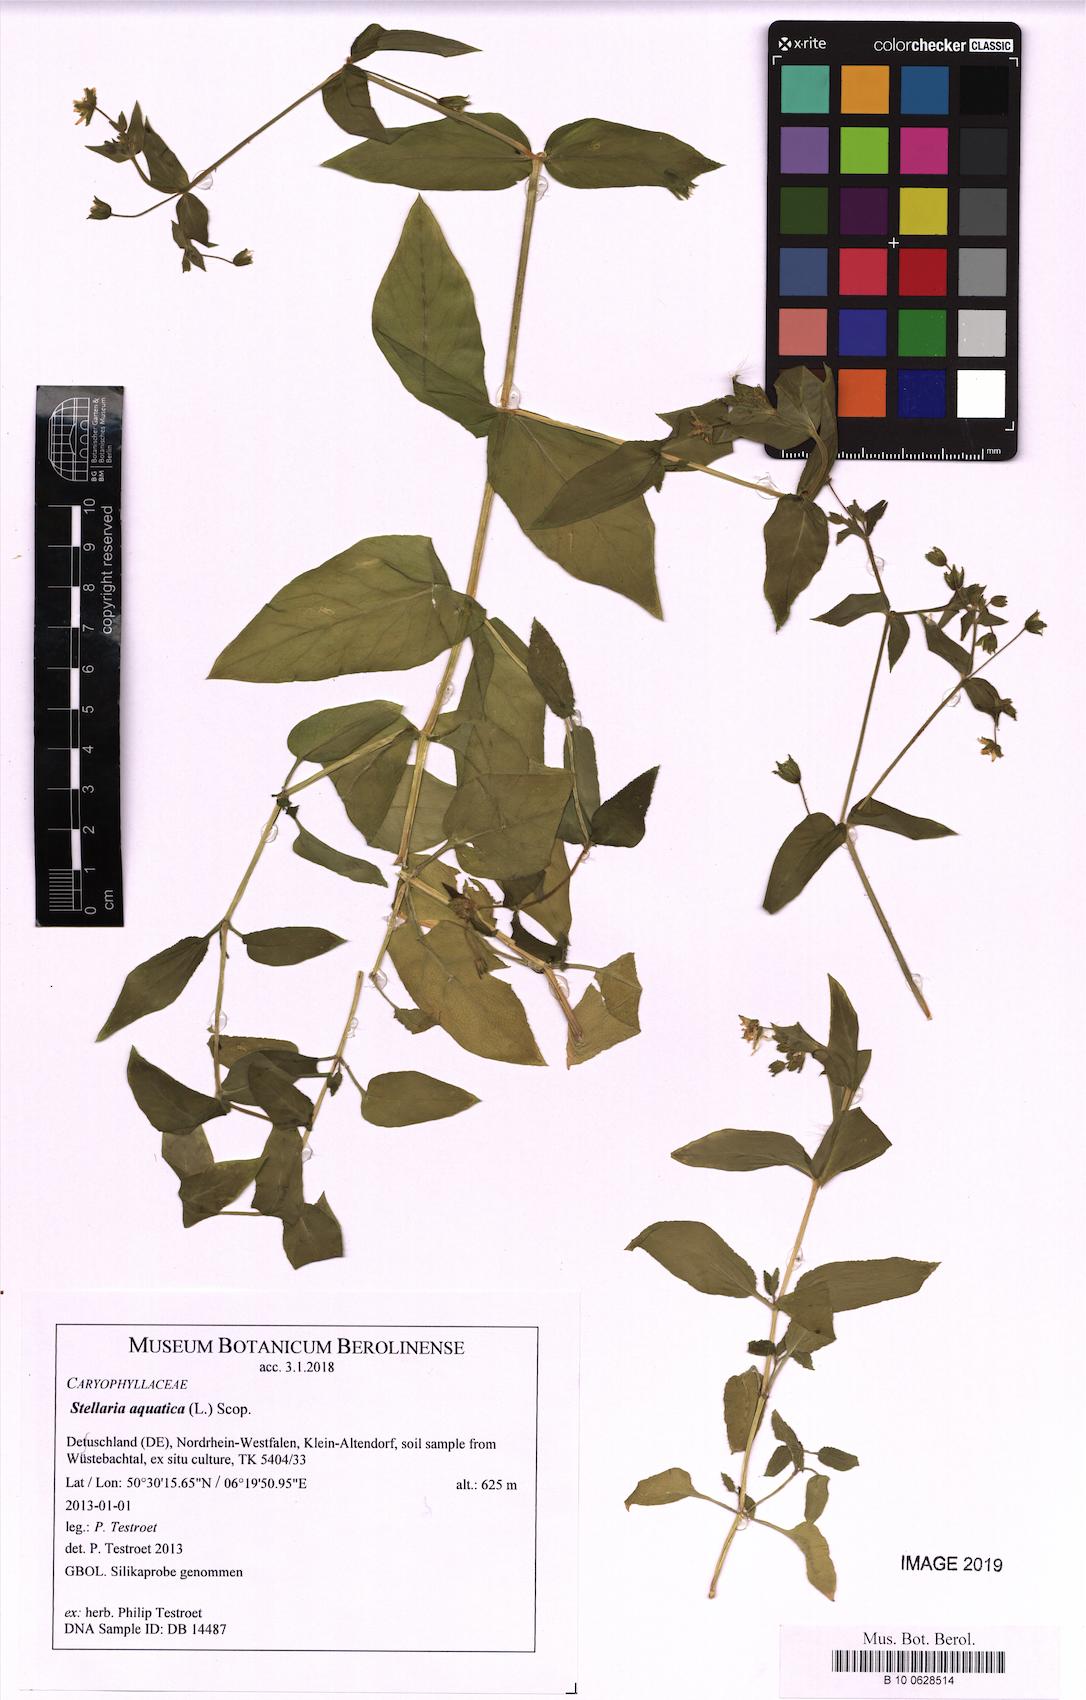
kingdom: Plantae
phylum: Tracheophyta
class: Magnoliopsida
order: Caryophyllales
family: Caryophyllaceae
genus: Stellaria
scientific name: Stellaria aquatica
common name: Water chickweed
